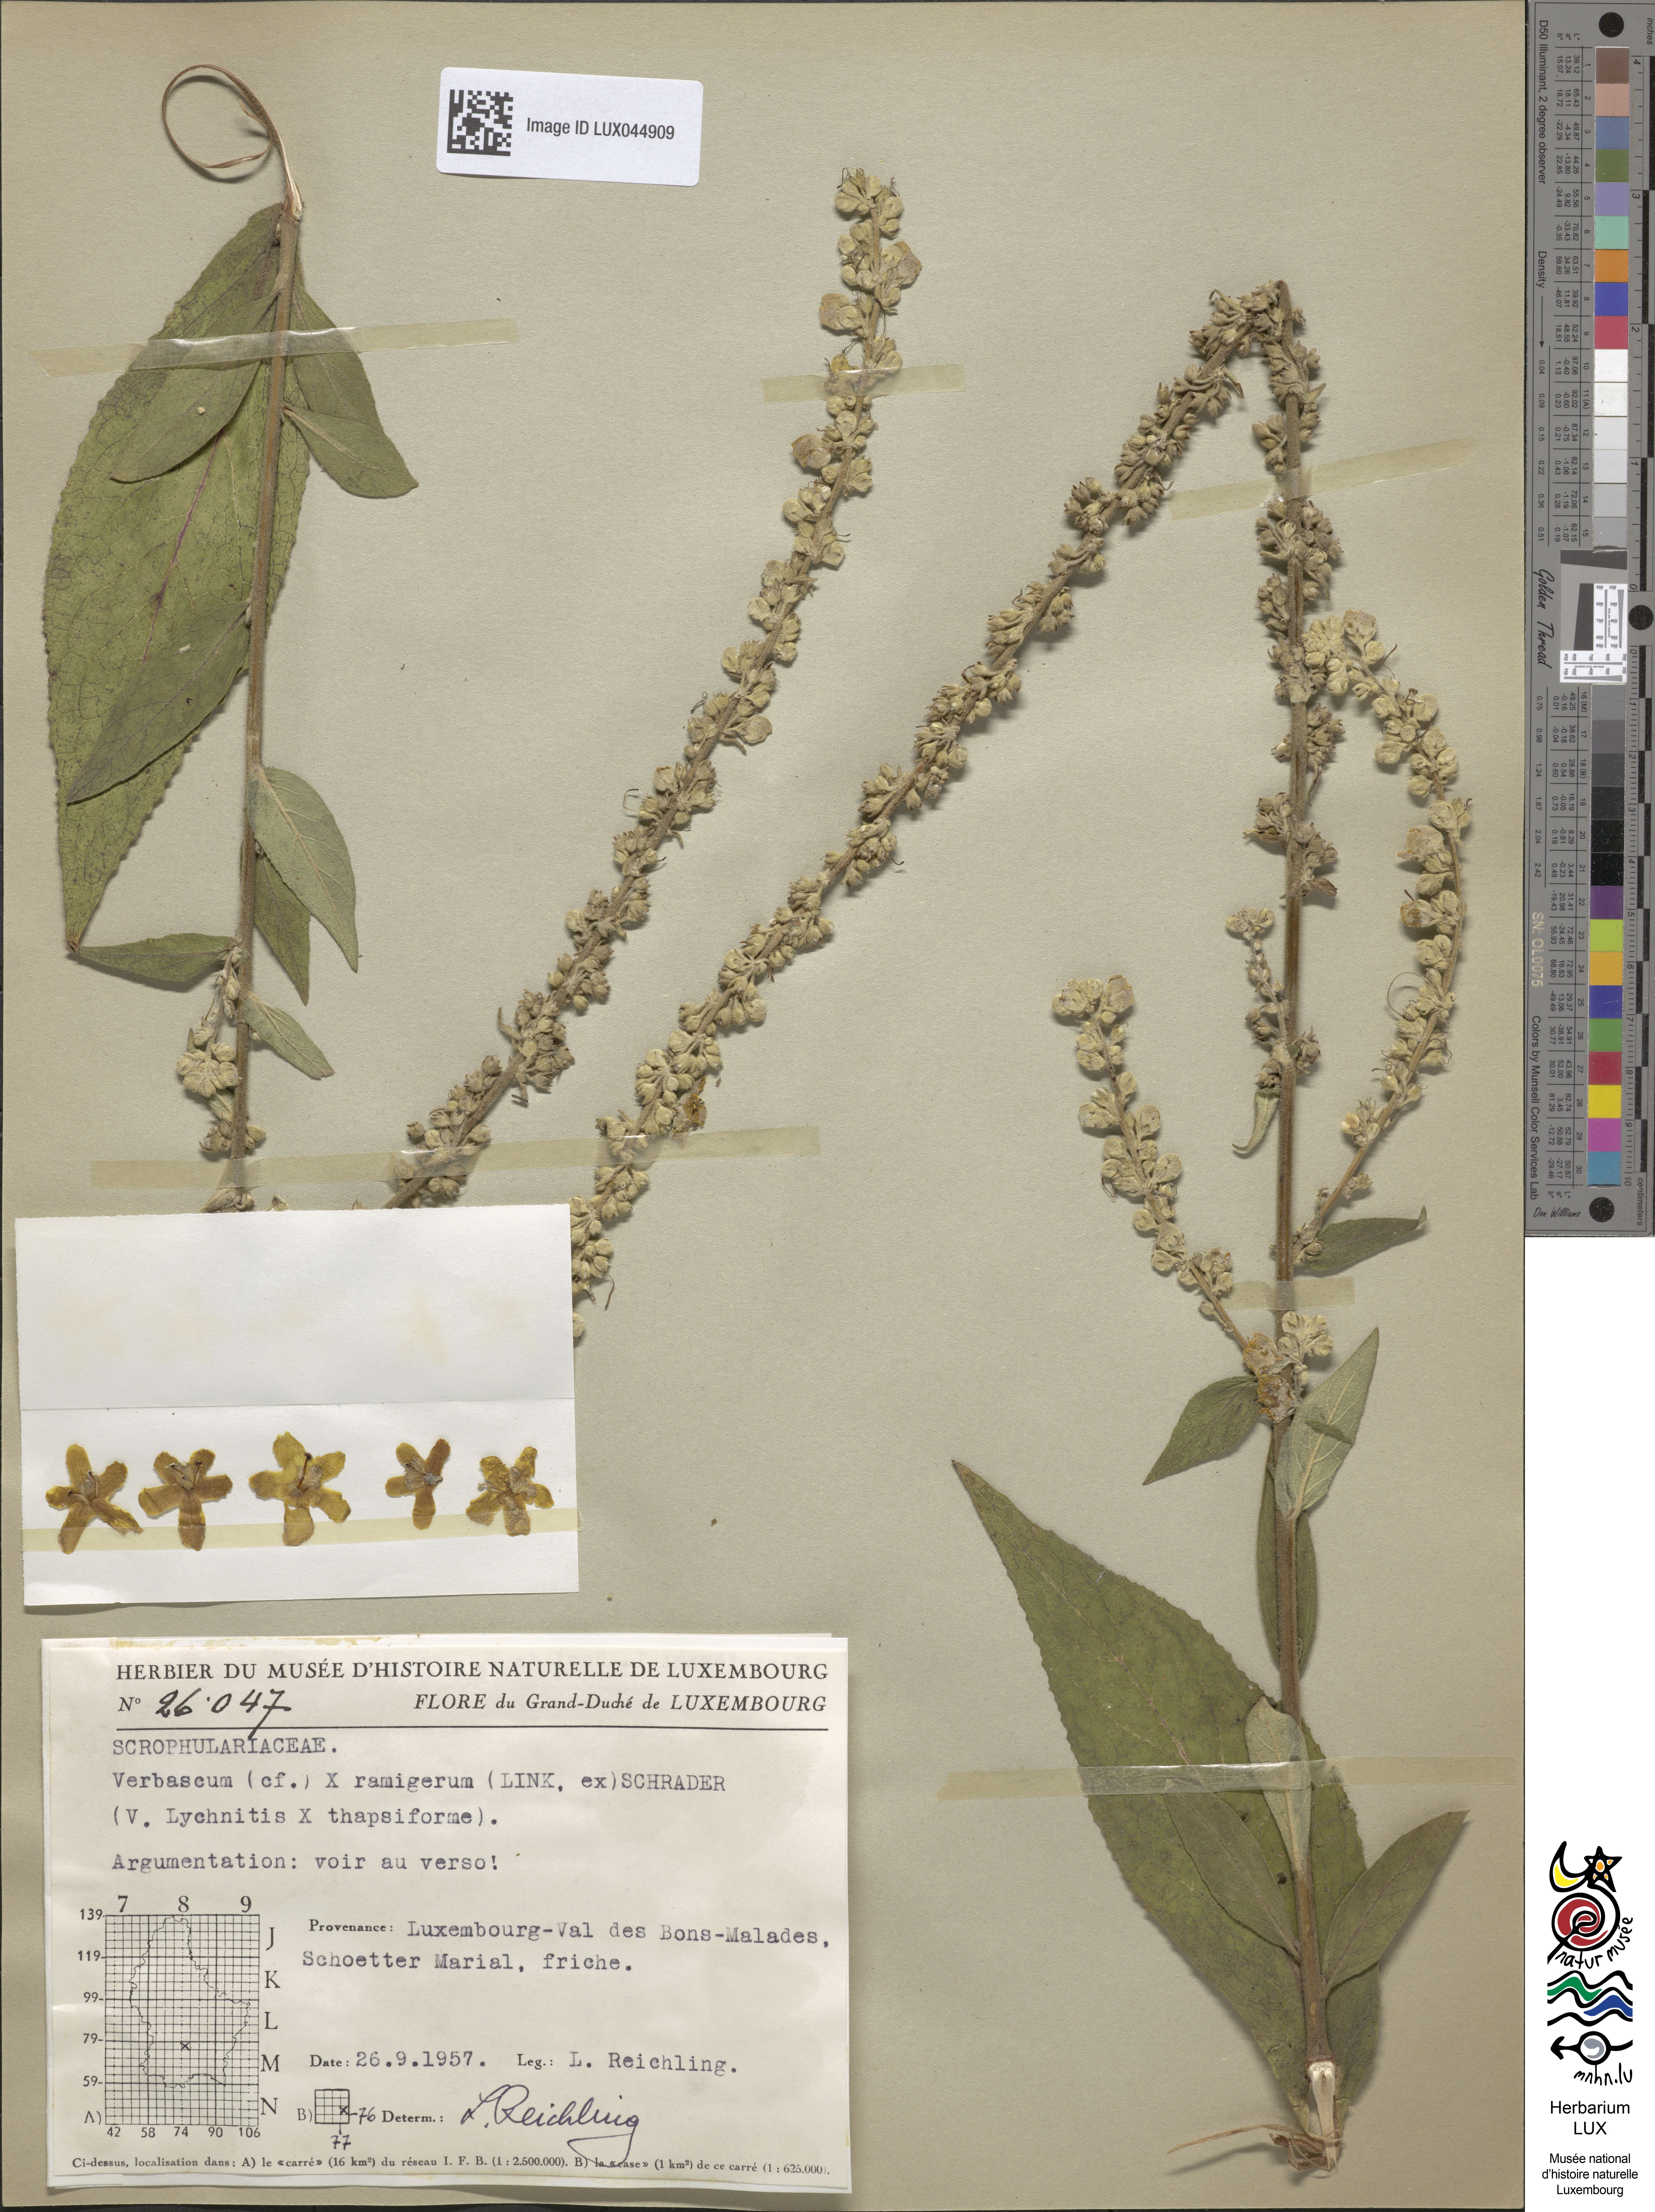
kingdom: Plantae
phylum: Tracheophyta
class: Magnoliopsida
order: Lamiales
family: Scrophulariaceae
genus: Verbascum
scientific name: Verbascum
